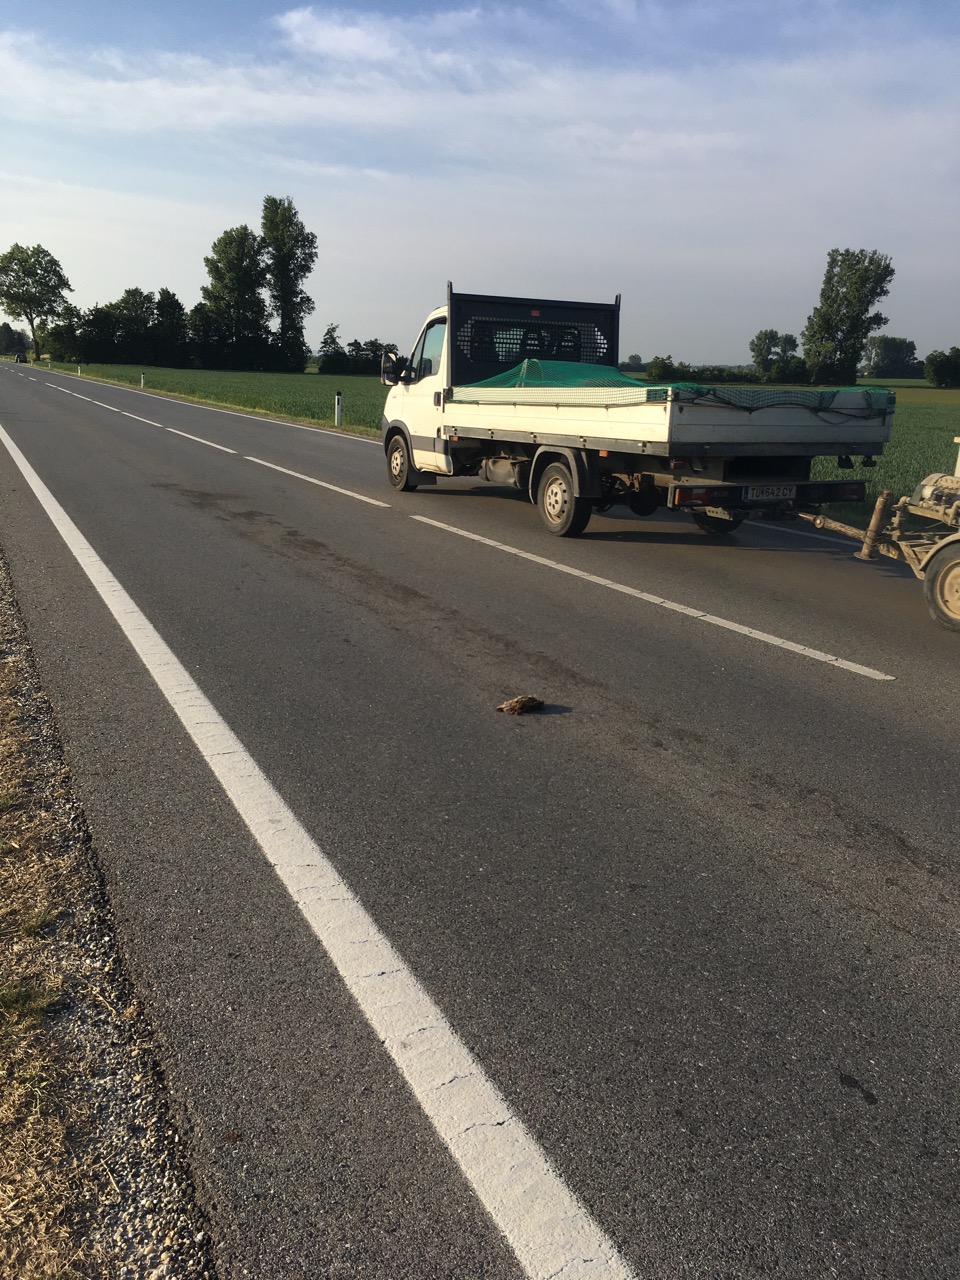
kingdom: Animalia
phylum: Chordata
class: Mammalia
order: Erinaceomorpha
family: Erinaceidae
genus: Erinaceus
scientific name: Erinaceus
